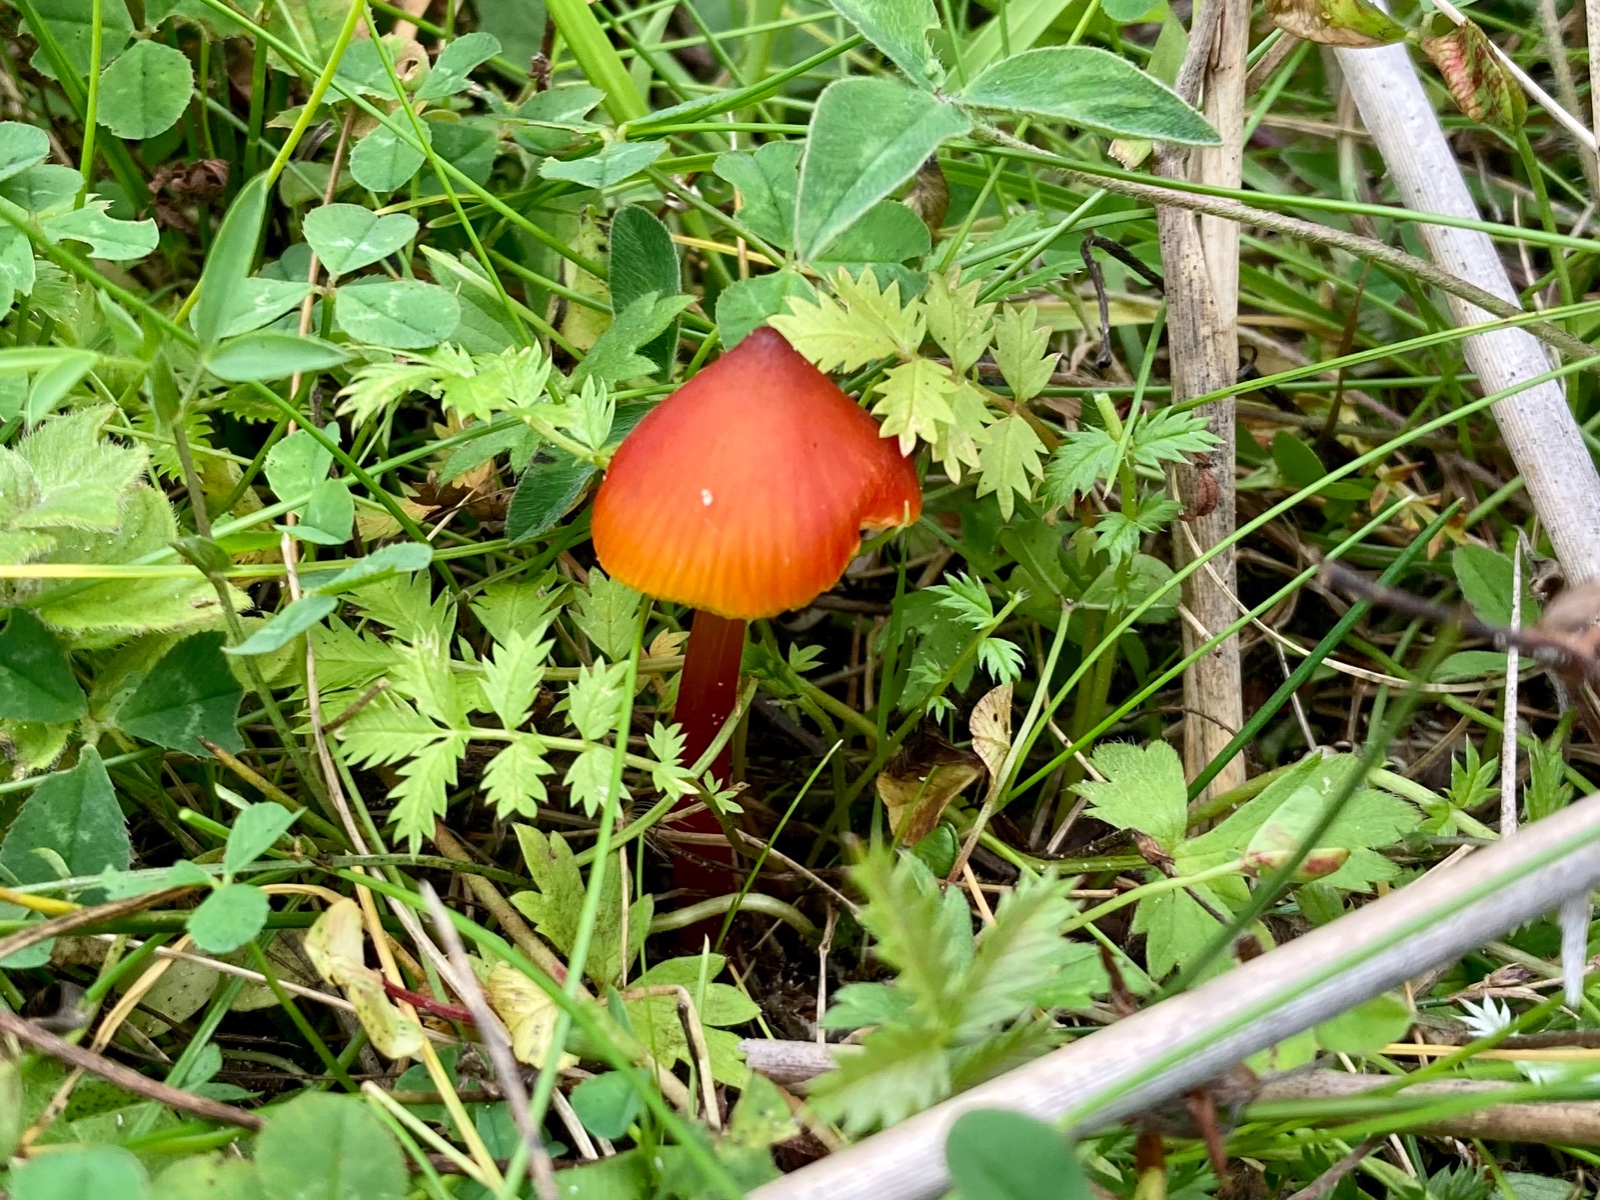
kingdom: Fungi
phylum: Basidiomycota
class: Agaricomycetes
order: Agaricales
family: Hygrophoraceae
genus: Hygrocybe
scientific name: Hygrocybe conica
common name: kegle-vokshat
